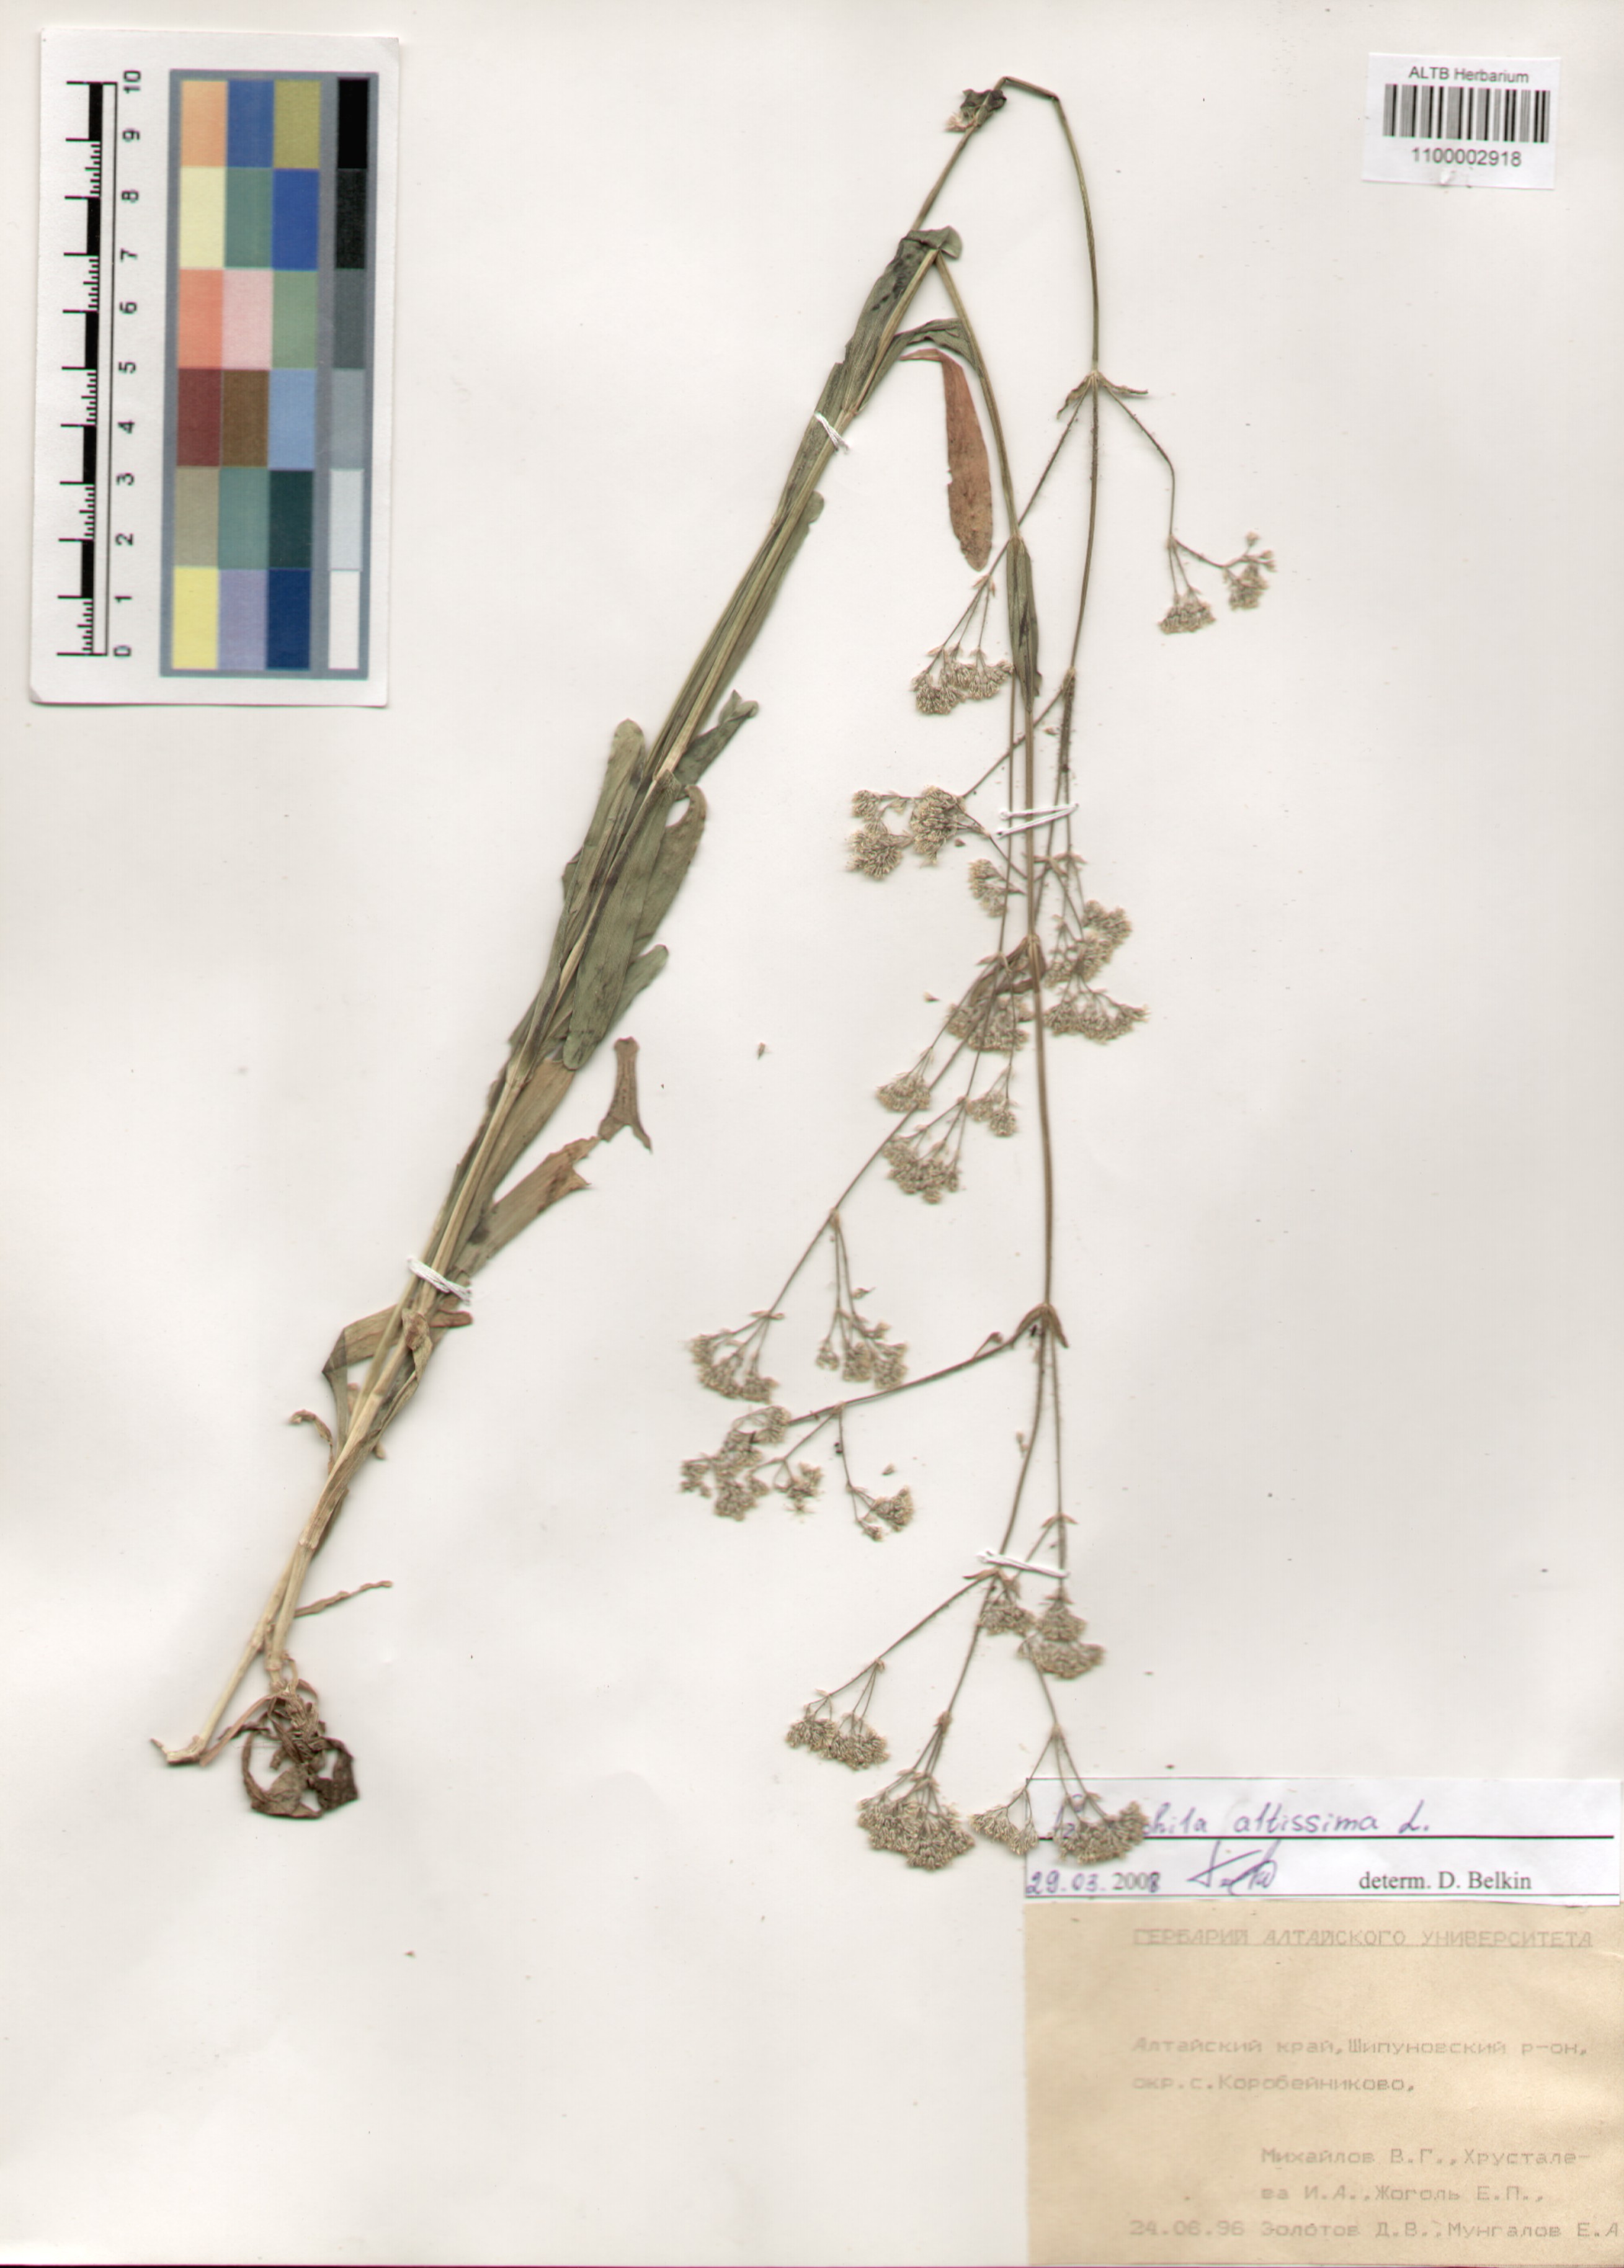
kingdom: Plantae
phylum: Tracheophyta
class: Magnoliopsida
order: Caryophyllales
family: Caryophyllaceae
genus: Gypsophila
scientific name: Gypsophila altissima
